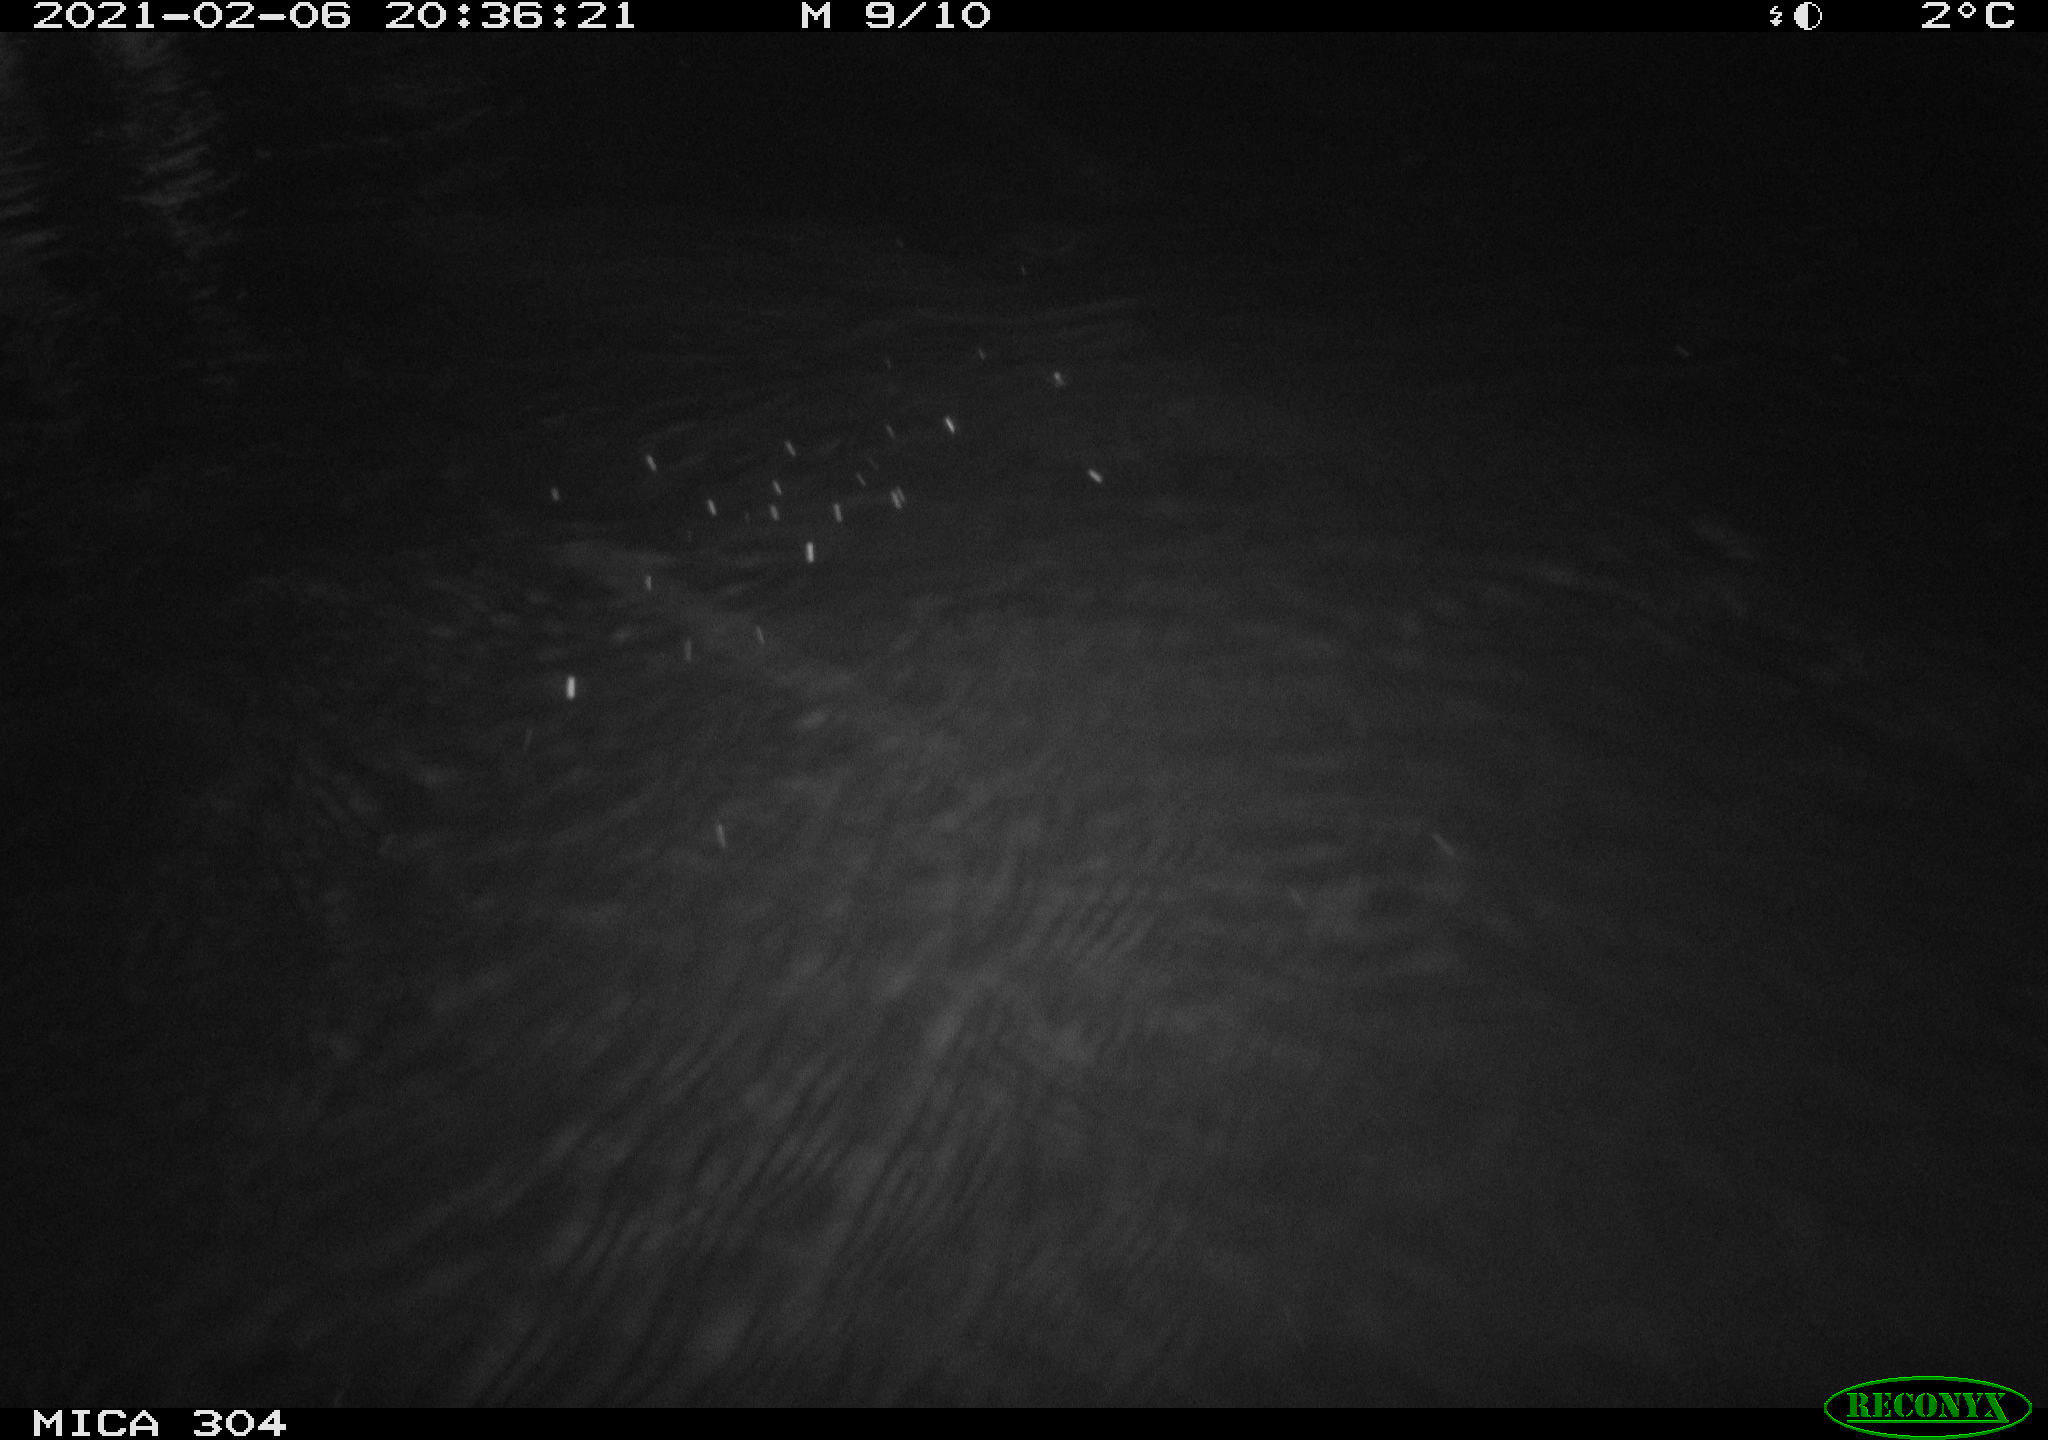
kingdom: Animalia
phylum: Chordata
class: Mammalia
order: Rodentia
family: Muridae
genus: Rattus
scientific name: Rattus norvegicus
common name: Brown rat
